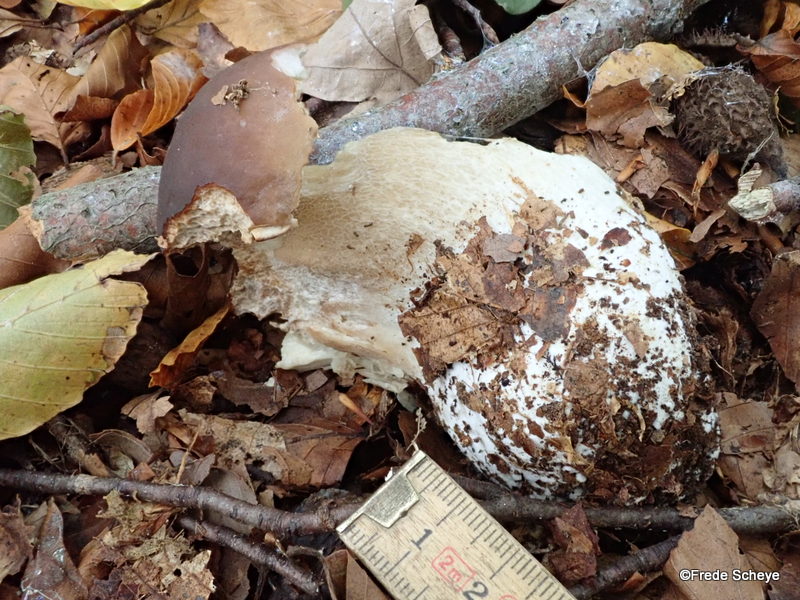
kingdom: Fungi
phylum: Basidiomycota
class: Agaricomycetes
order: Boletales
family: Boletaceae
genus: Boletus
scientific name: Boletus edulis
